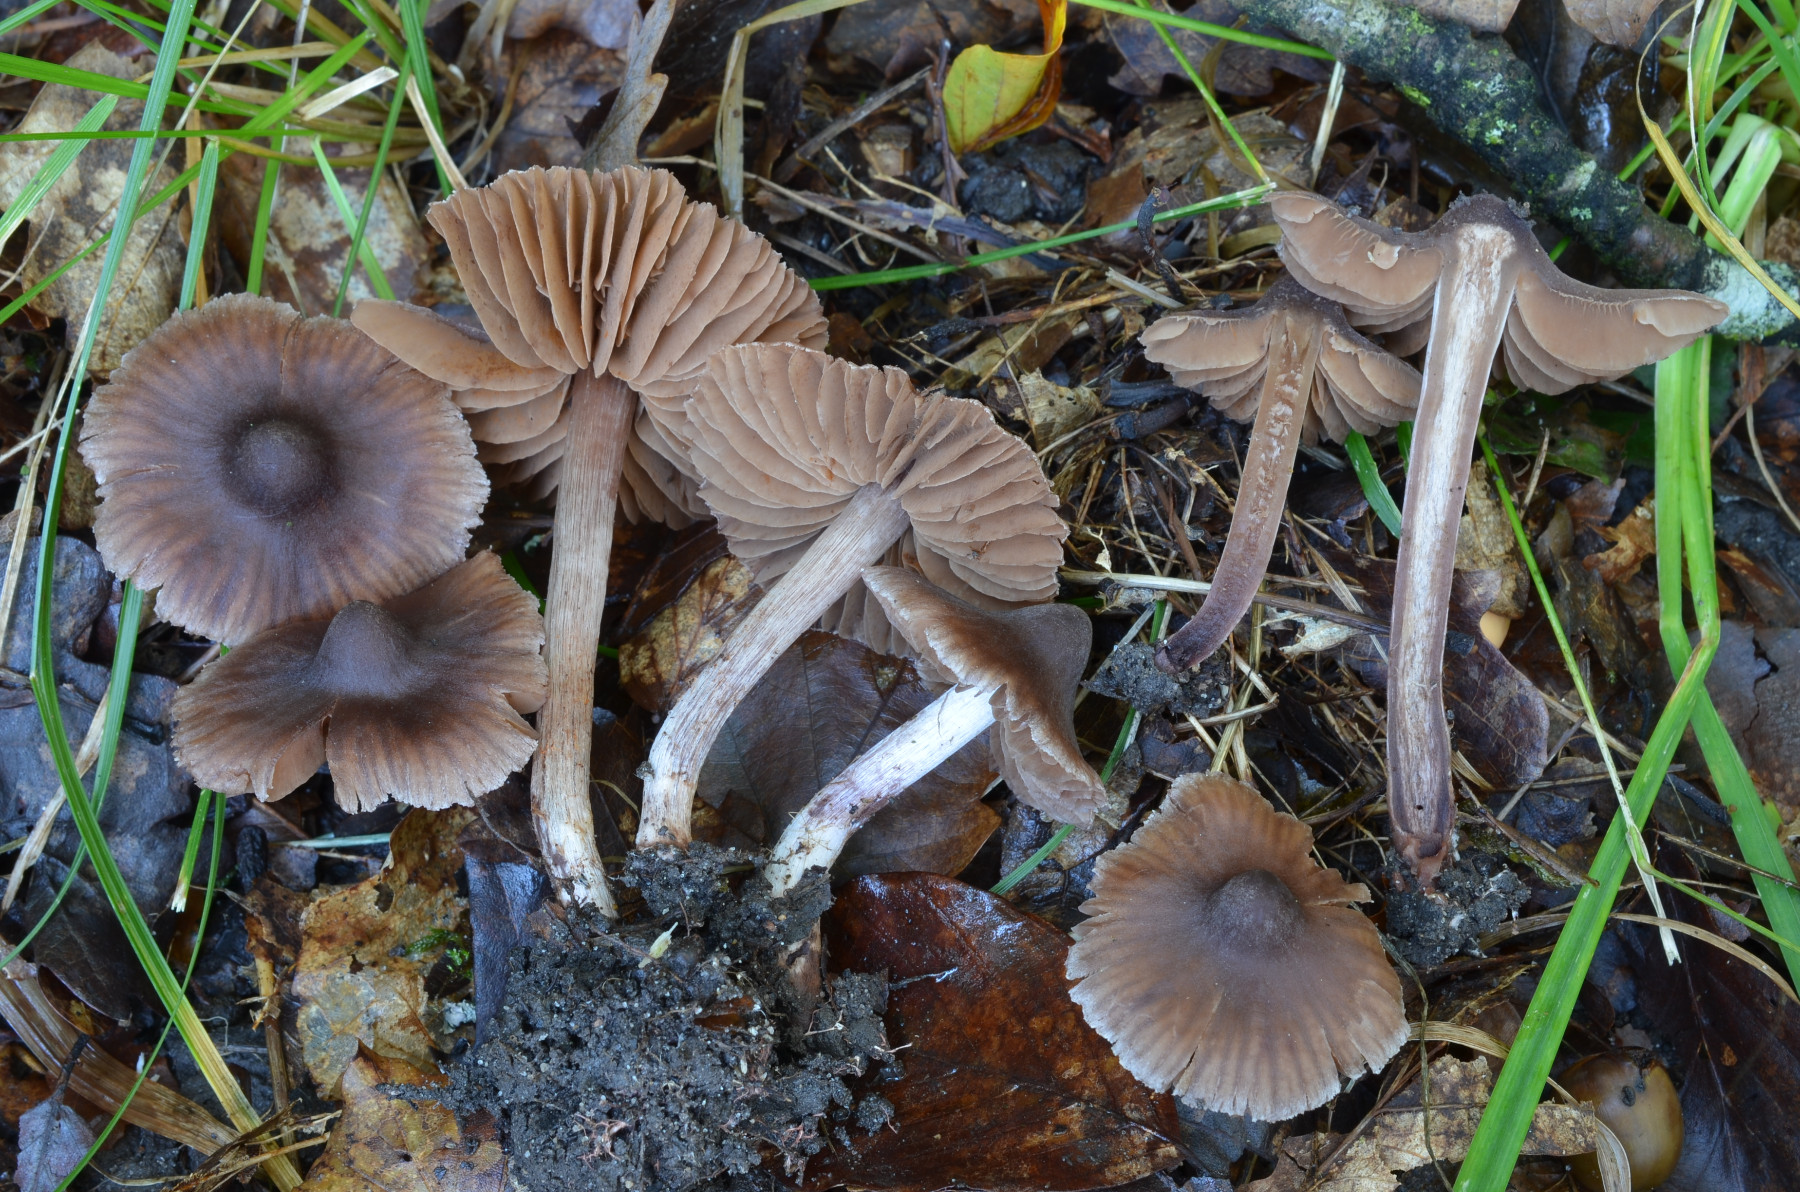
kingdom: Fungi
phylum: Basidiomycota
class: Agaricomycetes
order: Agaricales
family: Cortinariaceae
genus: Cortinarius
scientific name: Cortinarius caliginosus
